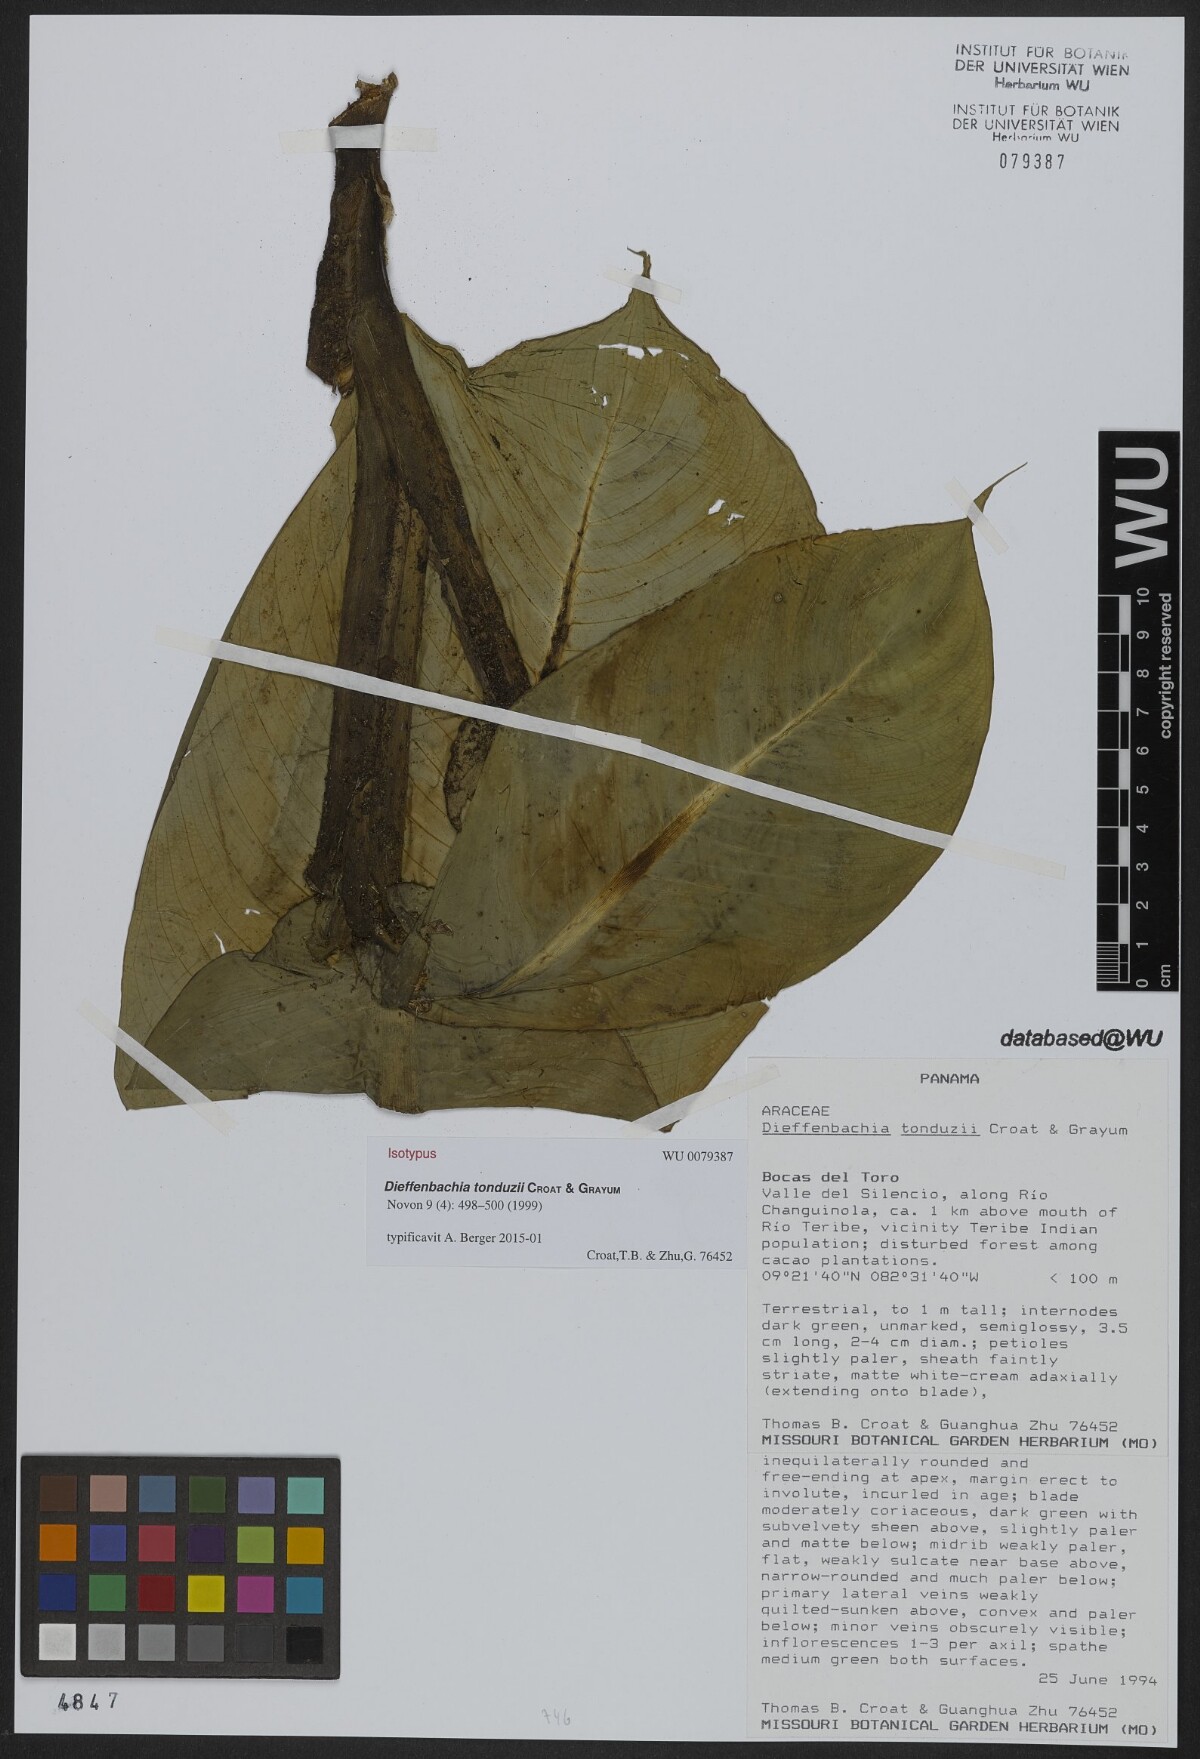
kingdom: Plantae
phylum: Tracheophyta
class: Liliopsida
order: Alismatales
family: Araceae
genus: Dieffenbachia
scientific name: Dieffenbachia tonduzii
